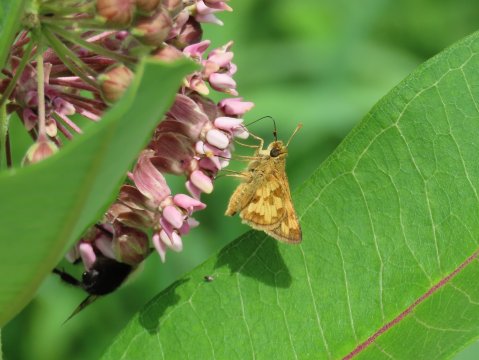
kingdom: Animalia
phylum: Arthropoda
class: Insecta
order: Lepidoptera
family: Hesperiidae
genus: Polites
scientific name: Polites coras
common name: Peck's Skipper
